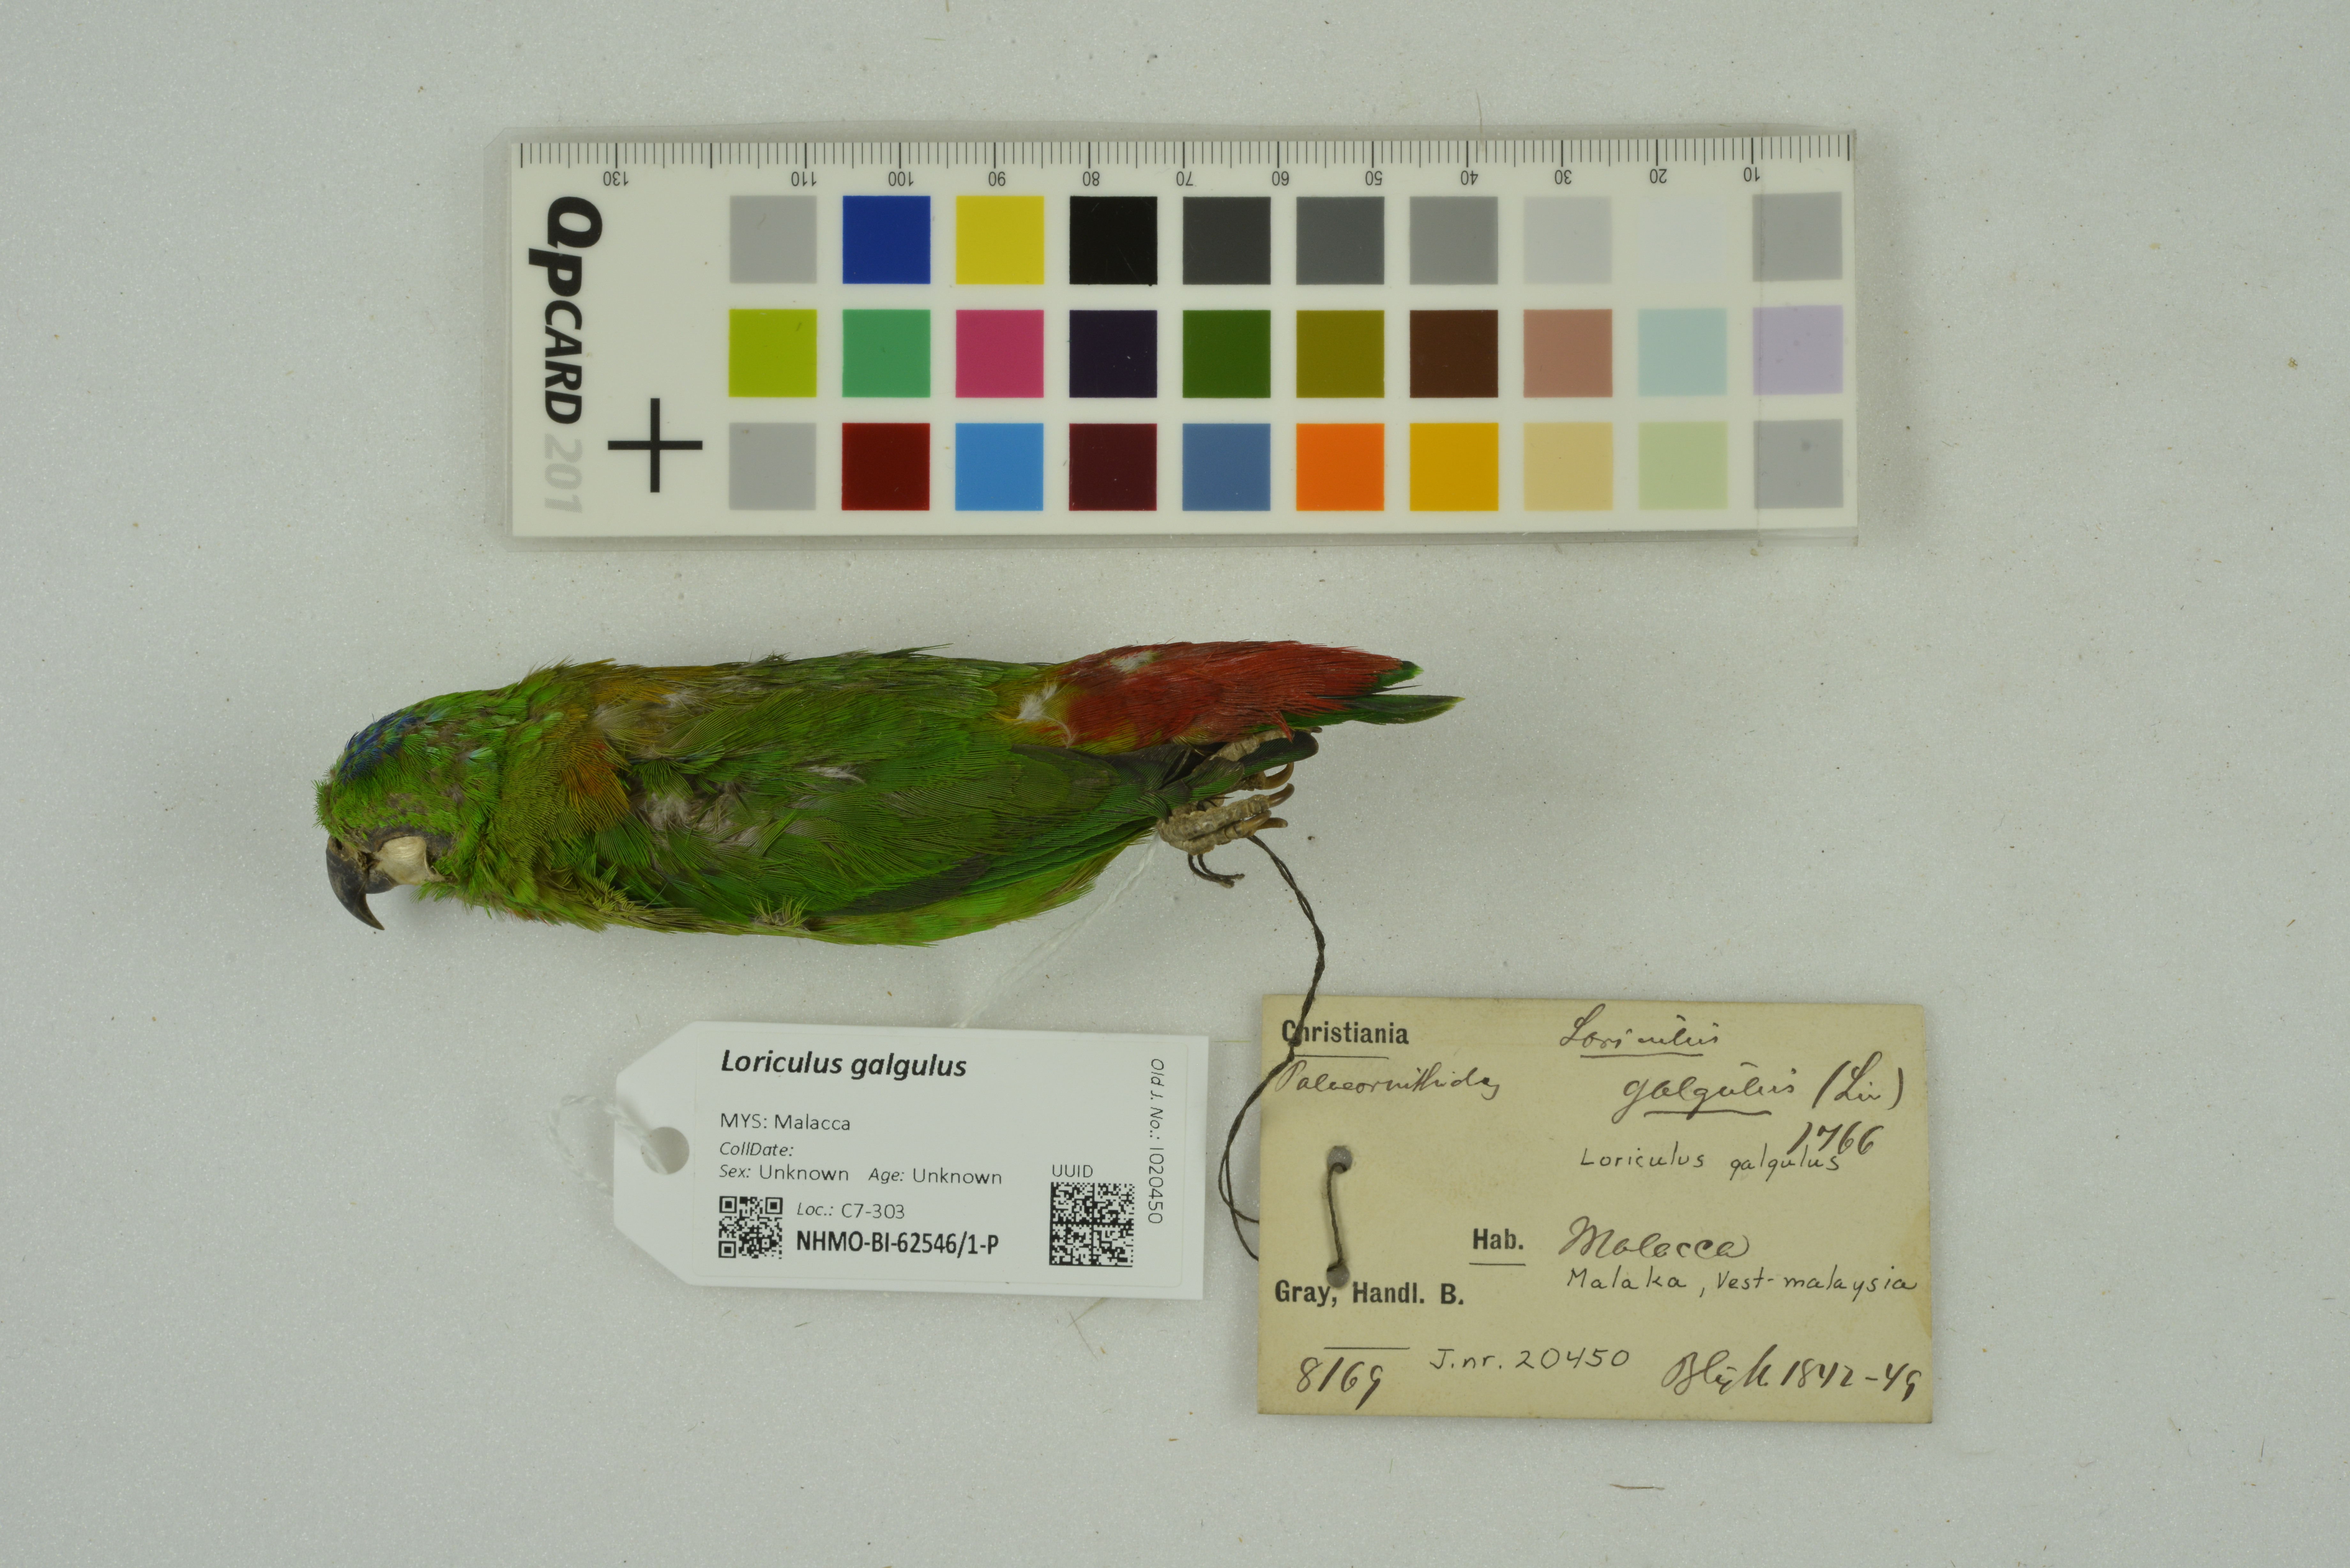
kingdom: Animalia
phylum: Chordata
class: Aves
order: Psittaciformes
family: Psittacidae
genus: Loriculus
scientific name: Loriculus galgulus
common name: Blue-crowned hanging parrot
